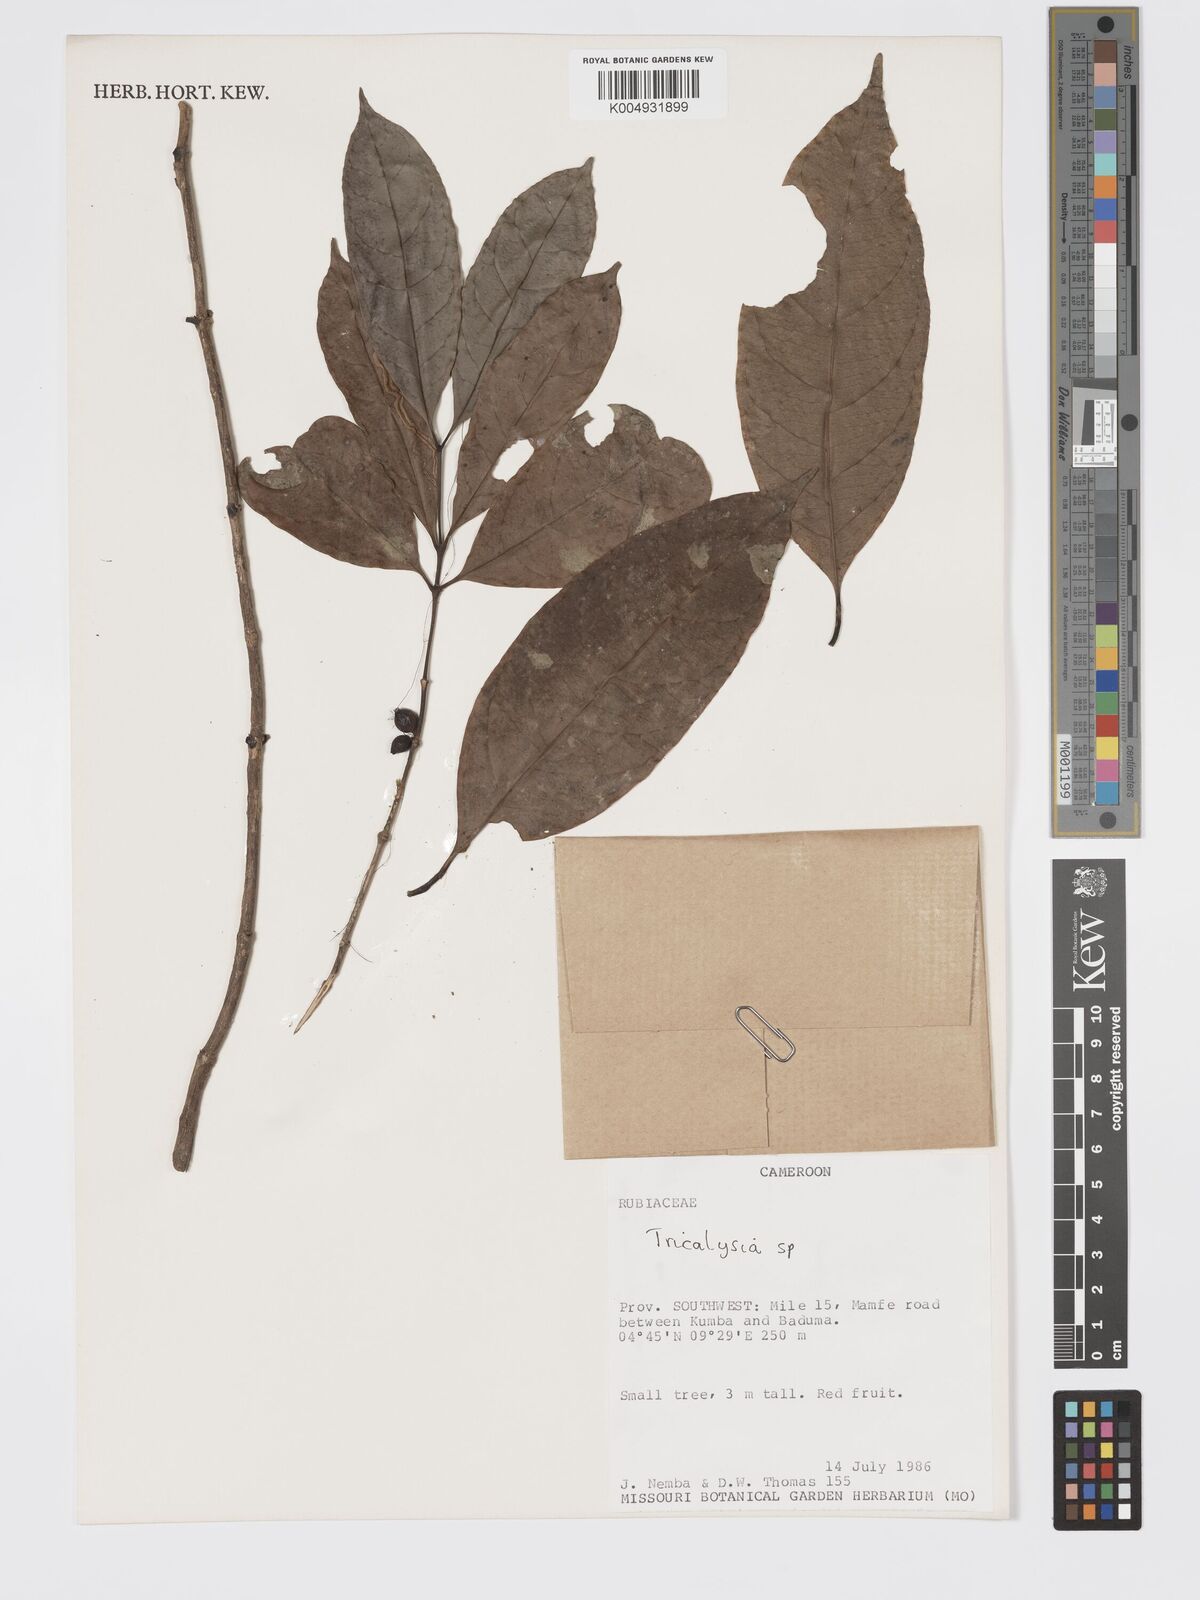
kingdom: Plantae
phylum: Tracheophyta
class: Magnoliopsida
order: Gentianales
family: Rubiaceae
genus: Tricalysia
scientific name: Tricalysia
